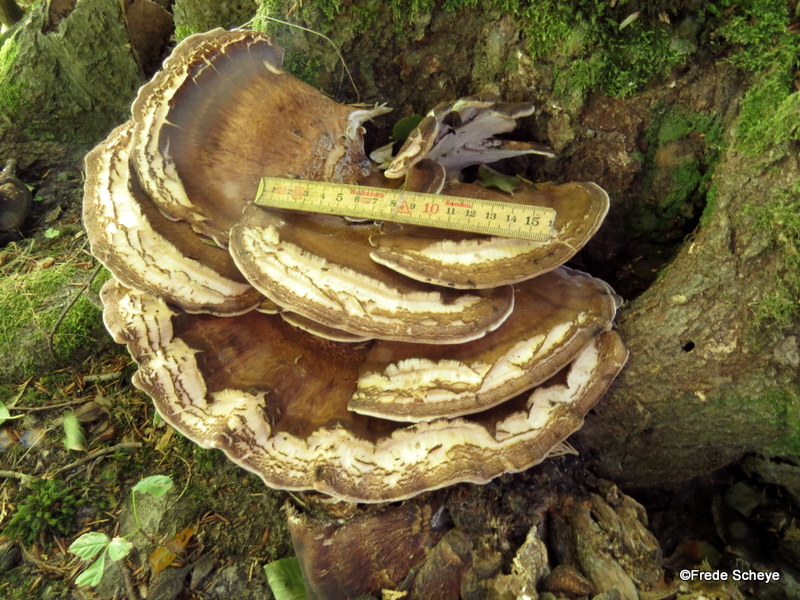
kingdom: Fungi
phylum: Basidiomycota
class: Agaricomycetes
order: Polyporales
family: Meripilaceae
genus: Meripilus
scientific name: Meripilus giganteus
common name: kæmpeporesvamp
